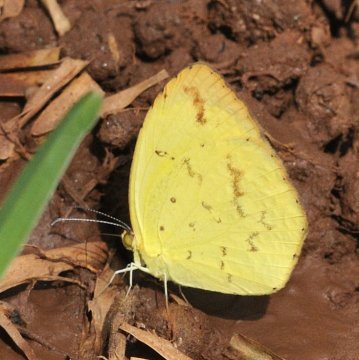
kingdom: Animalia
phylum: Arthropoda
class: Insecta
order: Lepidoptera
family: Pieridae
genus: Eurema
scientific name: Eurema desjardinsii
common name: Angled Grass Yellow
